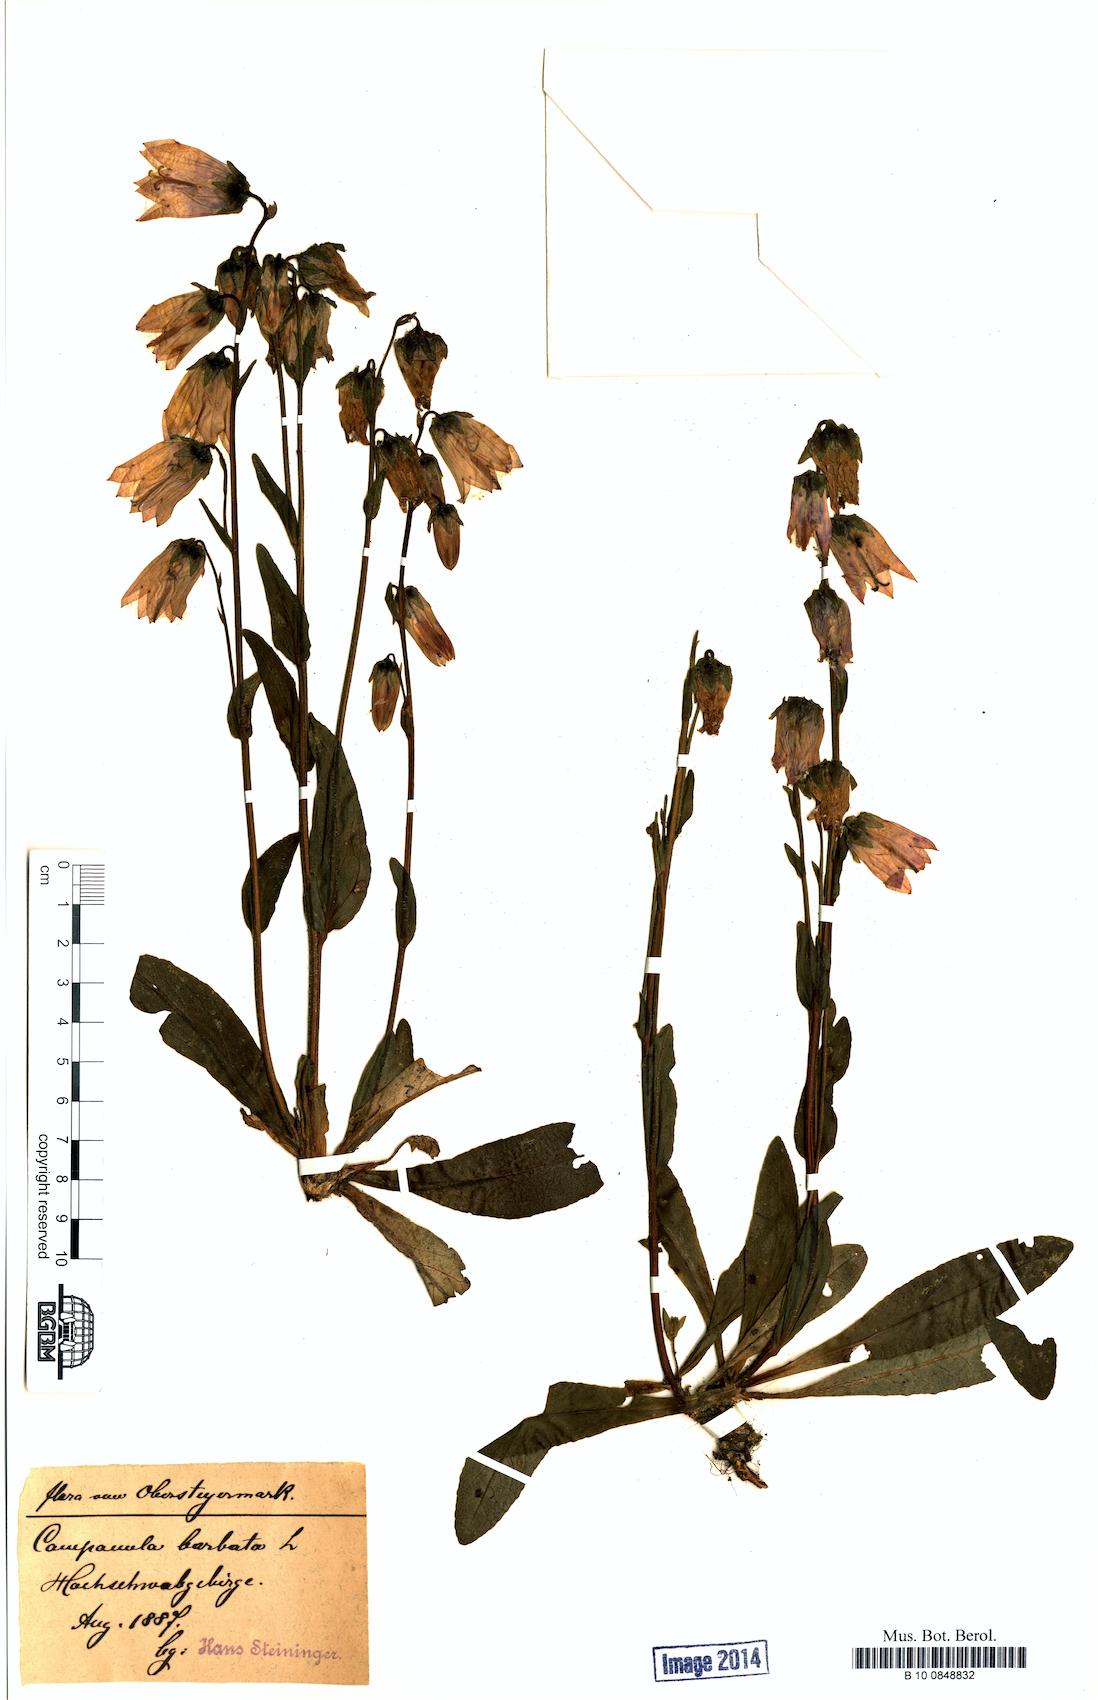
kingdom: Plantae
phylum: Tracheophyta
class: Magnoliopsida
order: Asterales
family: Campanulaceae
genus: Campanula
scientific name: Campanula barbata
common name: Bearded bellflower
